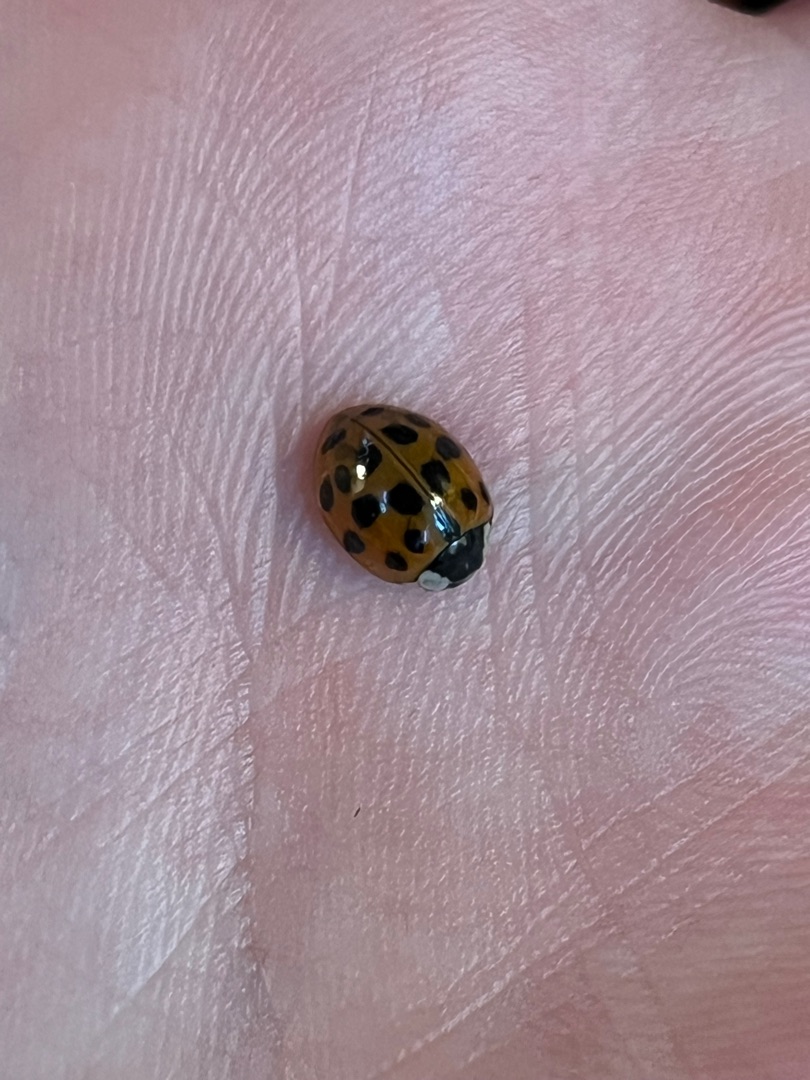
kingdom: Animalia
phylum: Arthropoda
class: Insecta
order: Coleoptera
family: Coccinellidae
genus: Harmonia
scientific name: Harmonia axyridis
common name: Harlekinmariehøne
